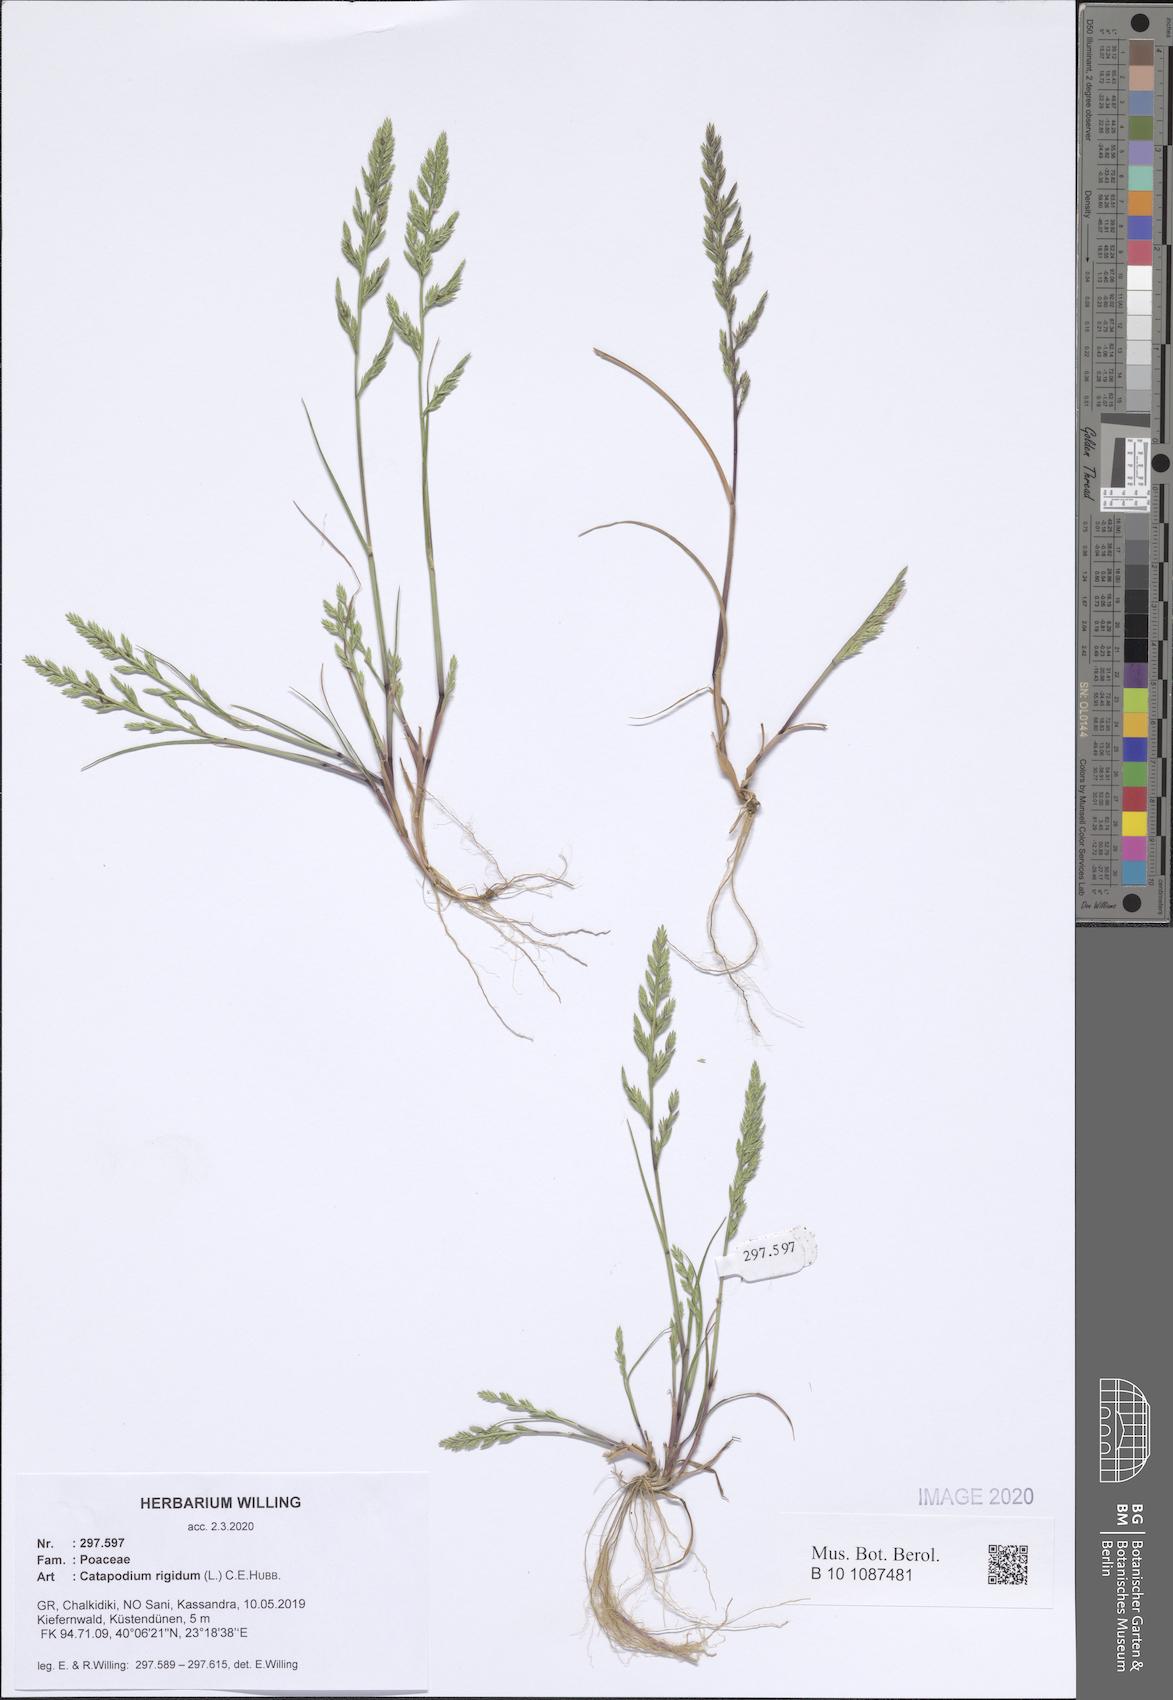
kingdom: Plantae
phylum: Tracheophyta
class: Liliopsida
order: Poales
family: Poaceae
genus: Catapodium
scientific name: Catapodium rigidum
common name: Fern-grass
